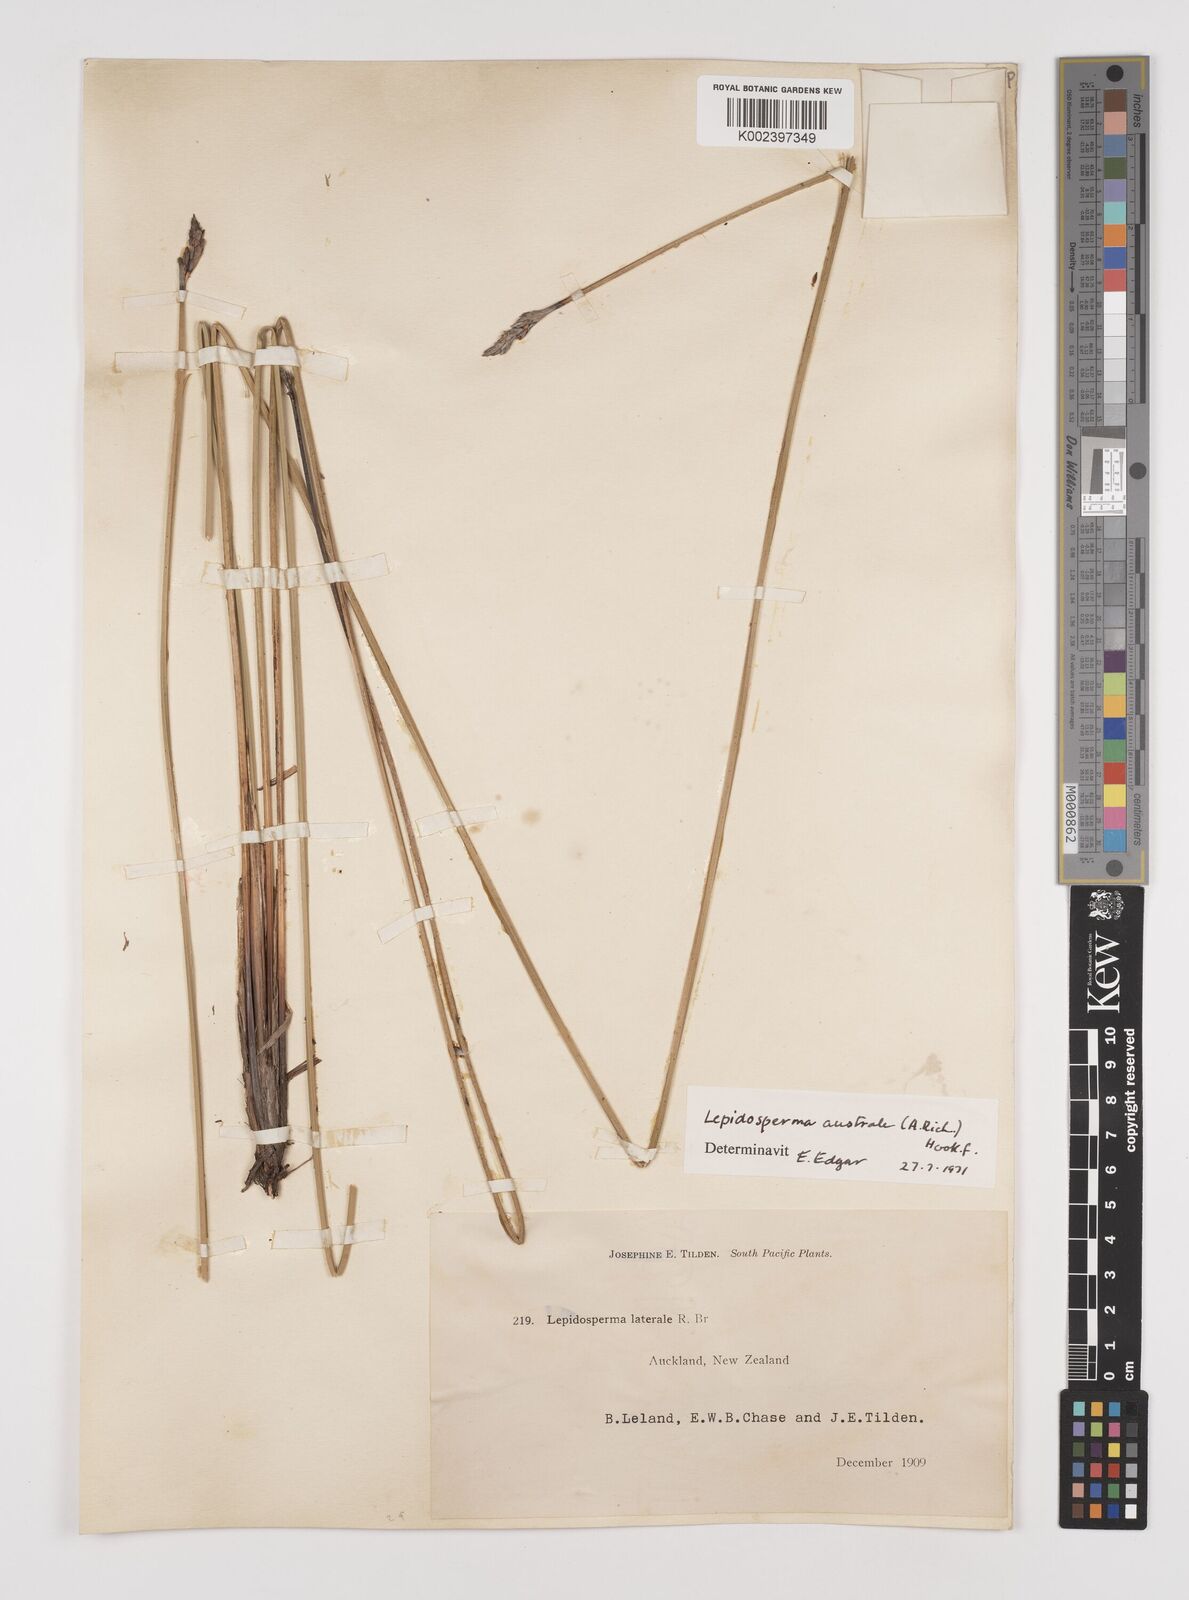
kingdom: Plantae
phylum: Tracheophyta
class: Liliopsida
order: Poales
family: Cyperaceae
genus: Lepidosperma
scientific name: Lepidosperma australe
